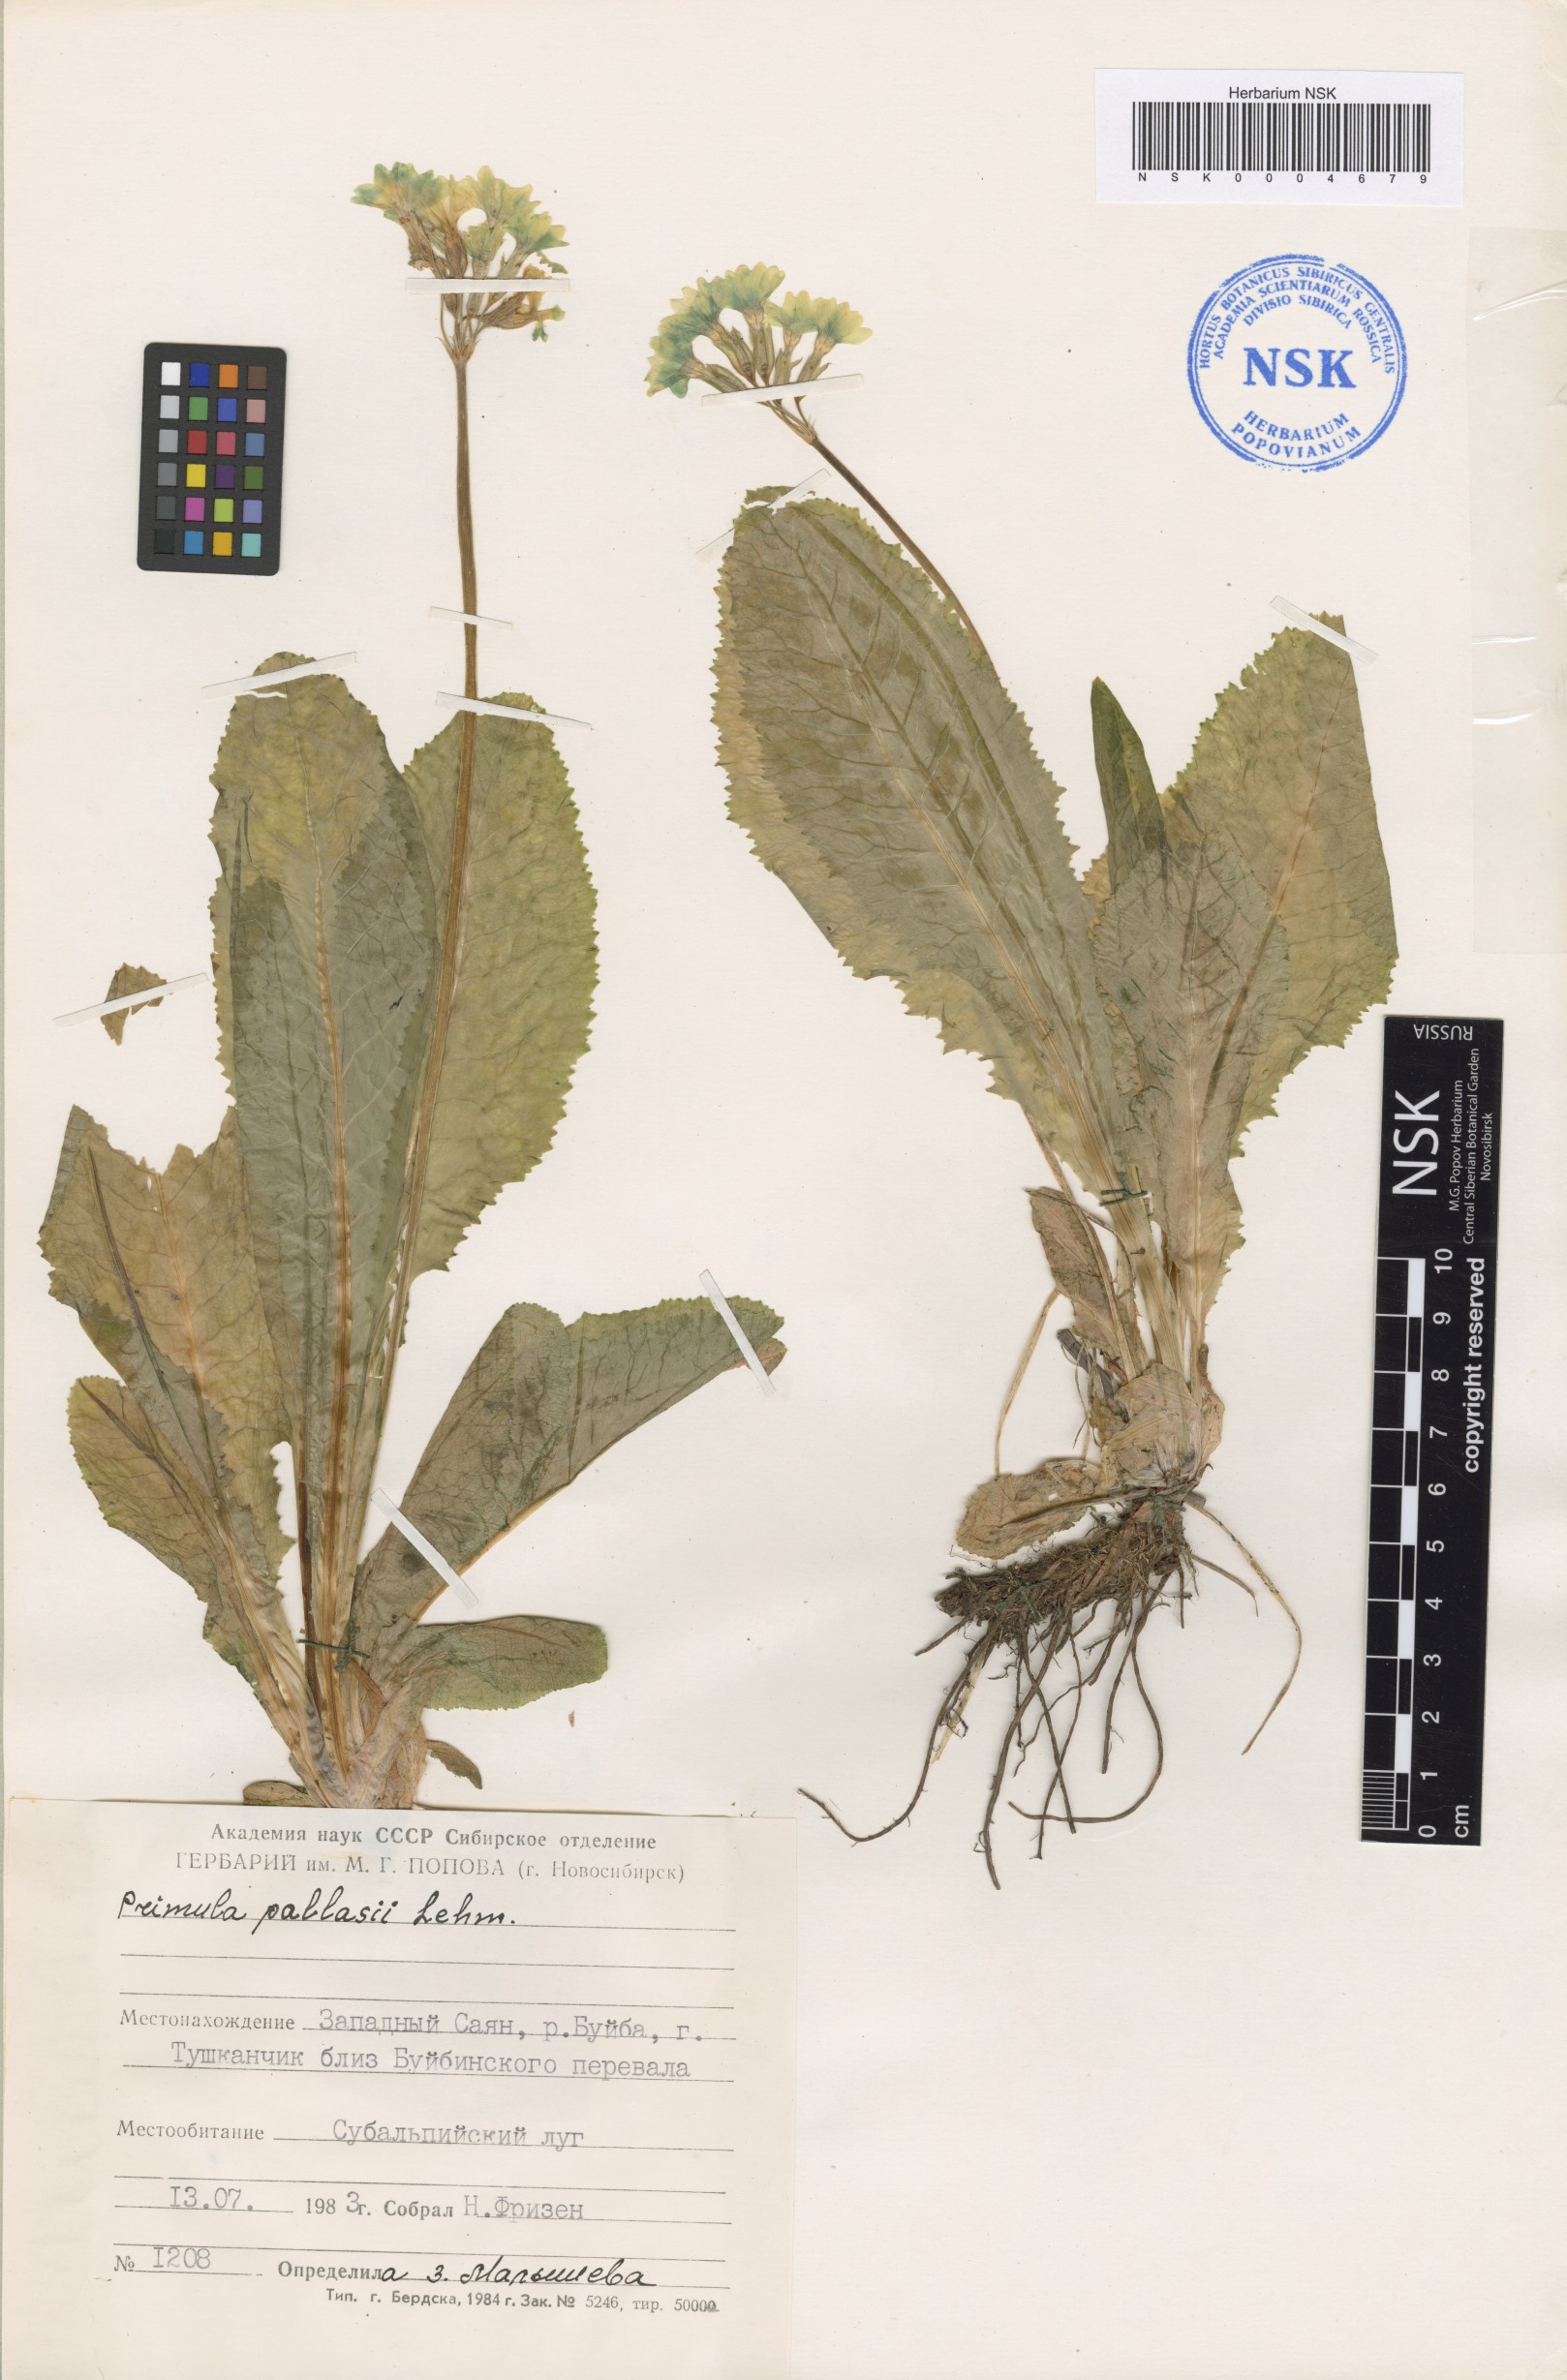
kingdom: Plantae
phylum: Tracheophyta
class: Magnoliopsida
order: Ericales
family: Primulaceae
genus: Primula
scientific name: Primula elatior
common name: Oxlip
